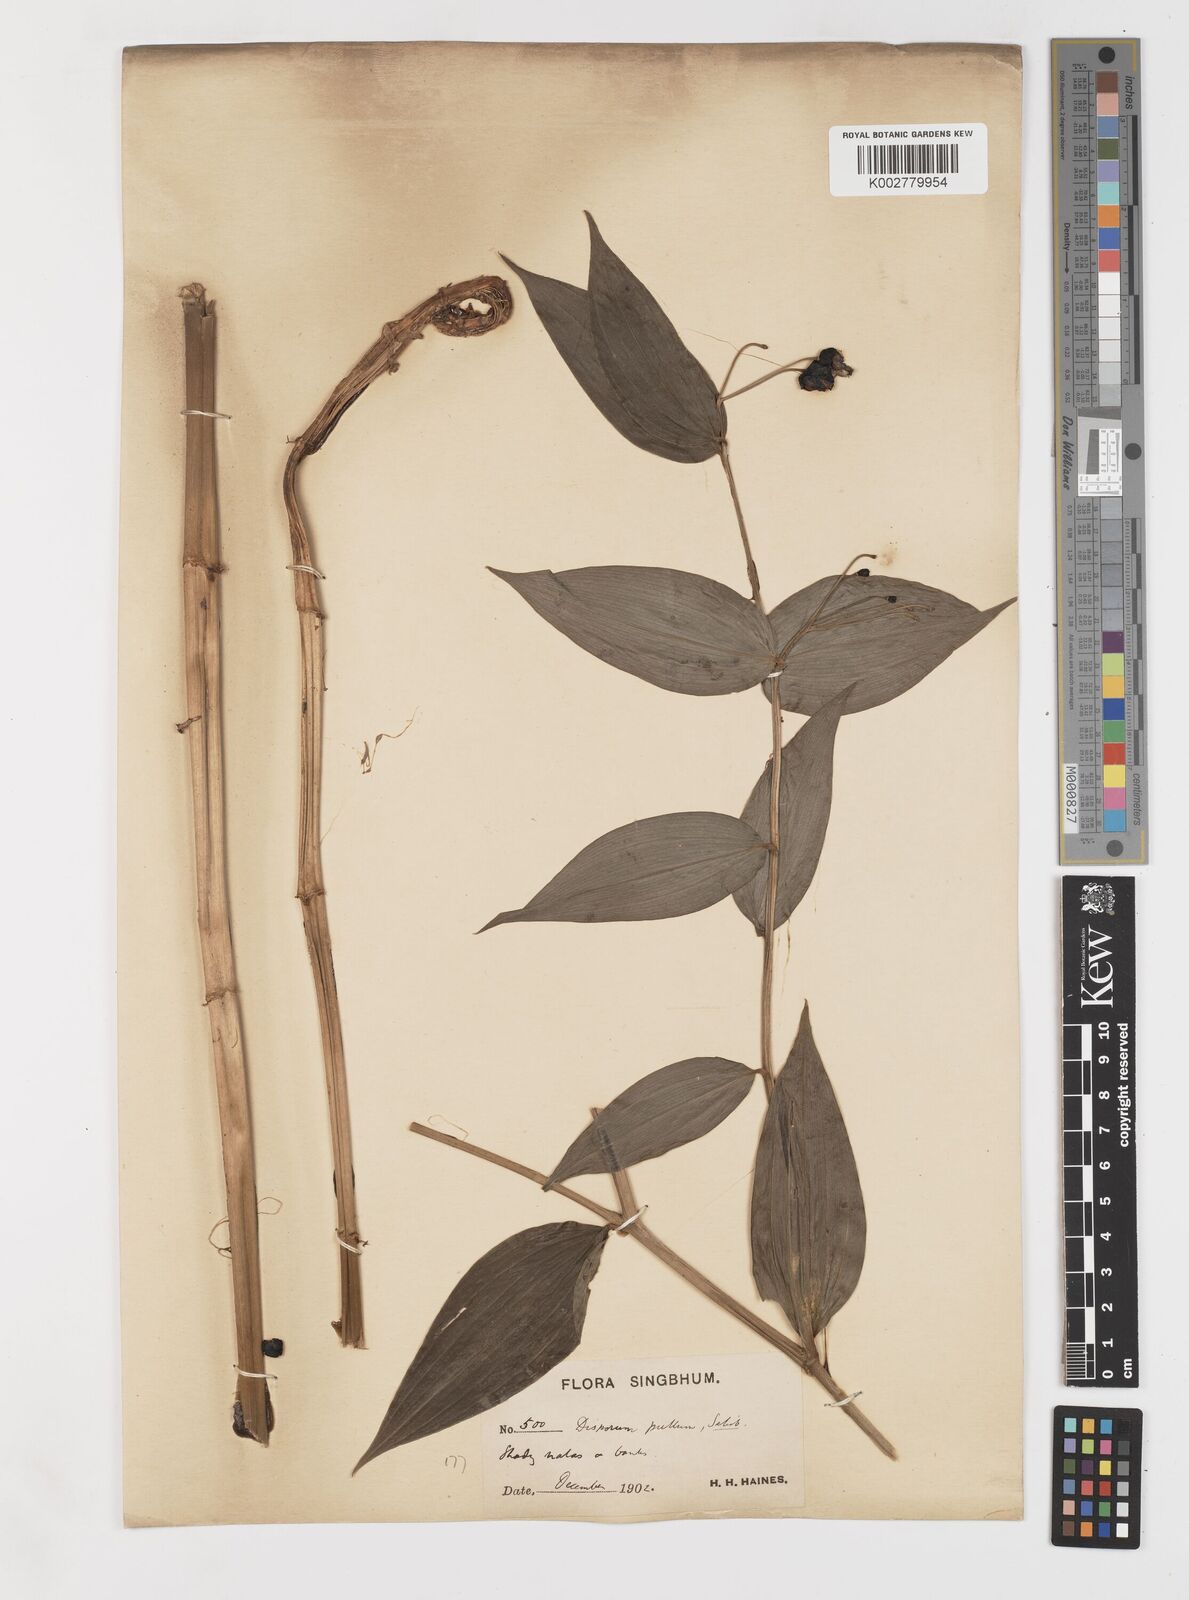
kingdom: Plantae
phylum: Tracheophyta
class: Liliopsida
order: Liliales
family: Colchicaceae
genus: Disporum
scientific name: Disporum cantoniense
